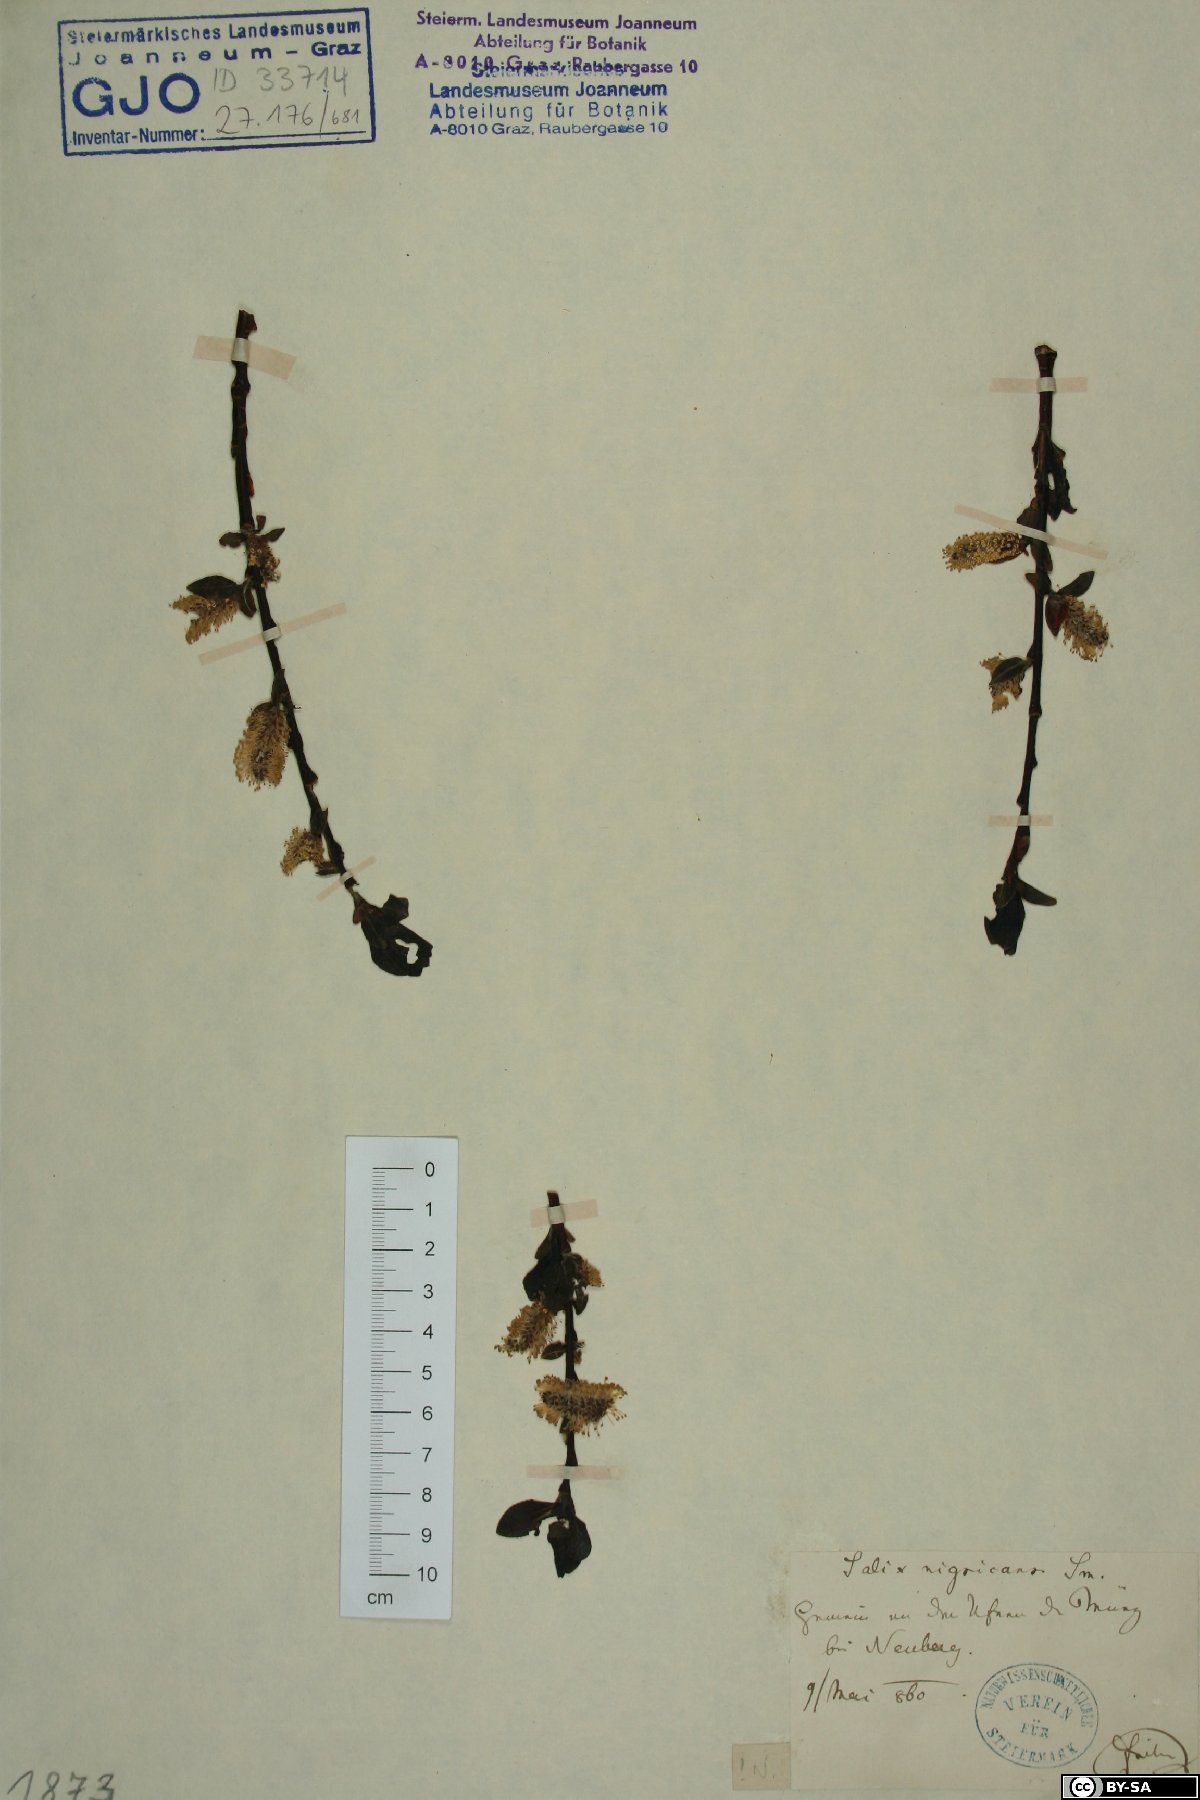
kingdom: Plantae
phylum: Tracheophyta
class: Magnoliopsida
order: Malpighiales
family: Salicaceae
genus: Salix
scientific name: Salix myrsinifolia
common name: Dark-leaved willow
